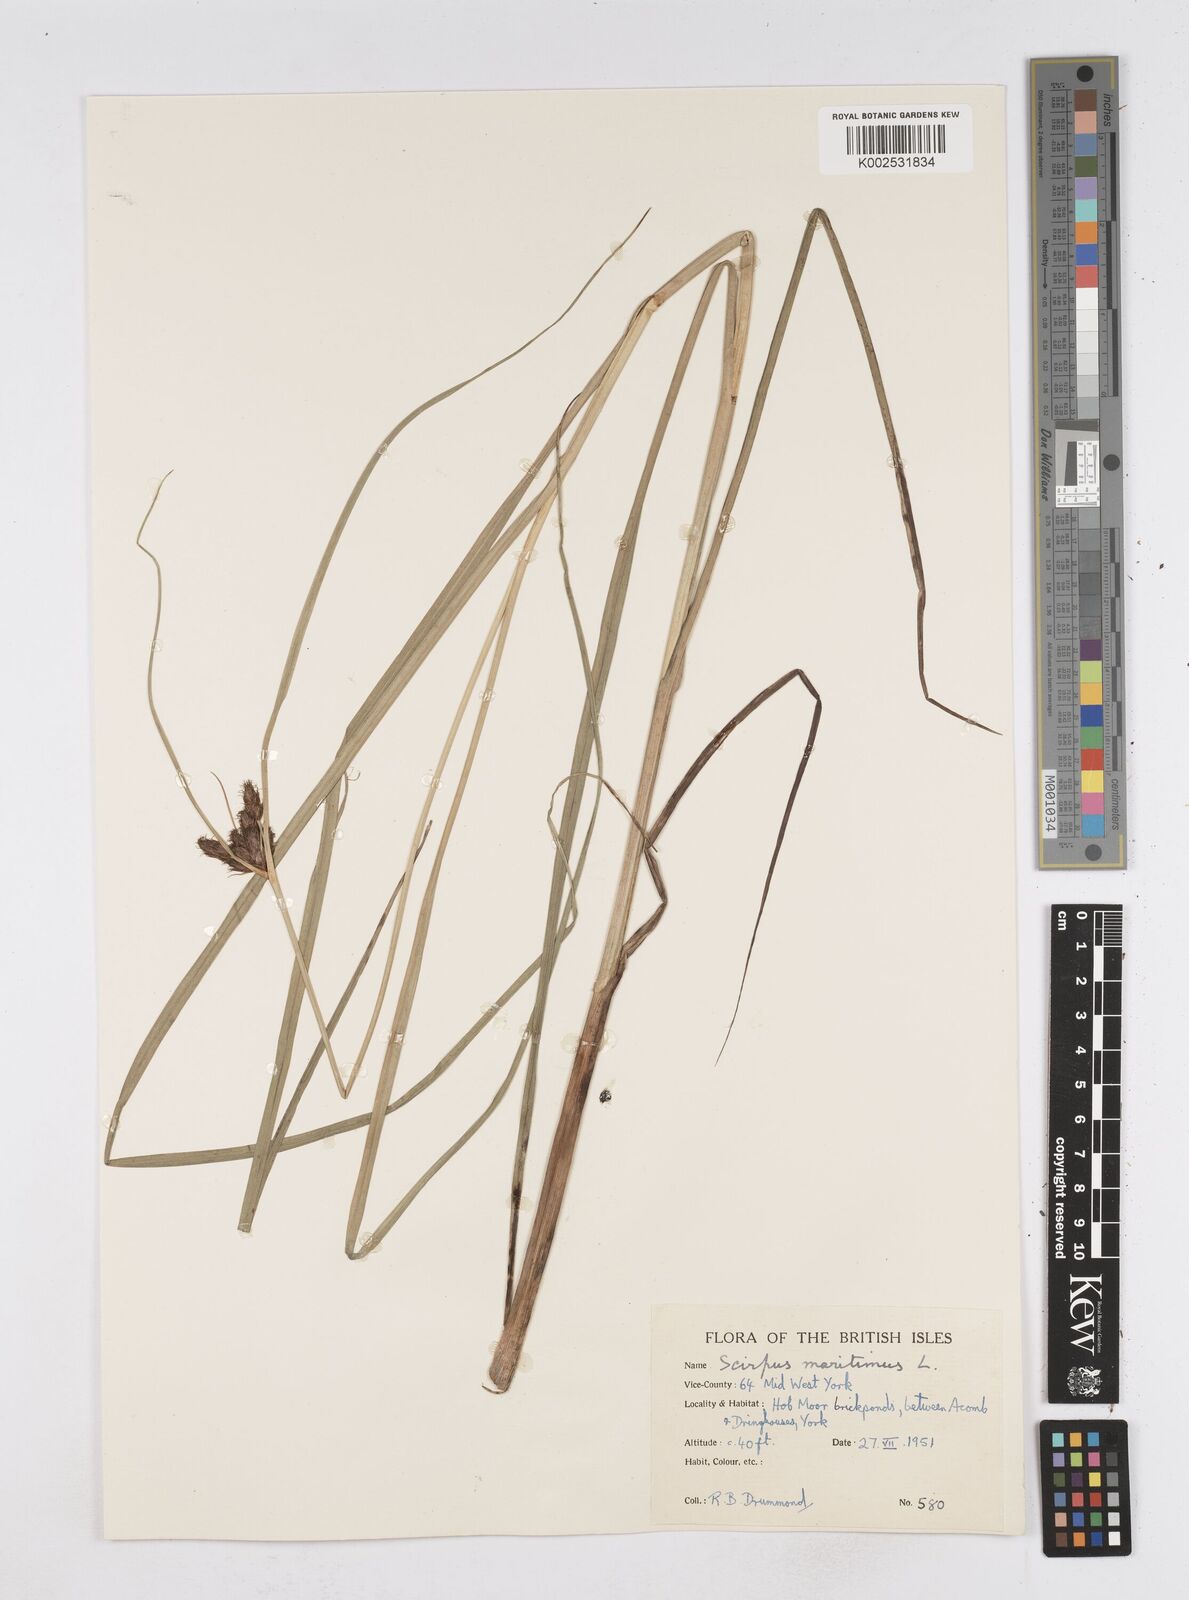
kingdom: Plantae
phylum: Tracheophyta
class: Liliopsida
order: Poales
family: Cyperaceae
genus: Bolboschoenus
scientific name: Bolboschoenus maritimus
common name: Sea club-rush
